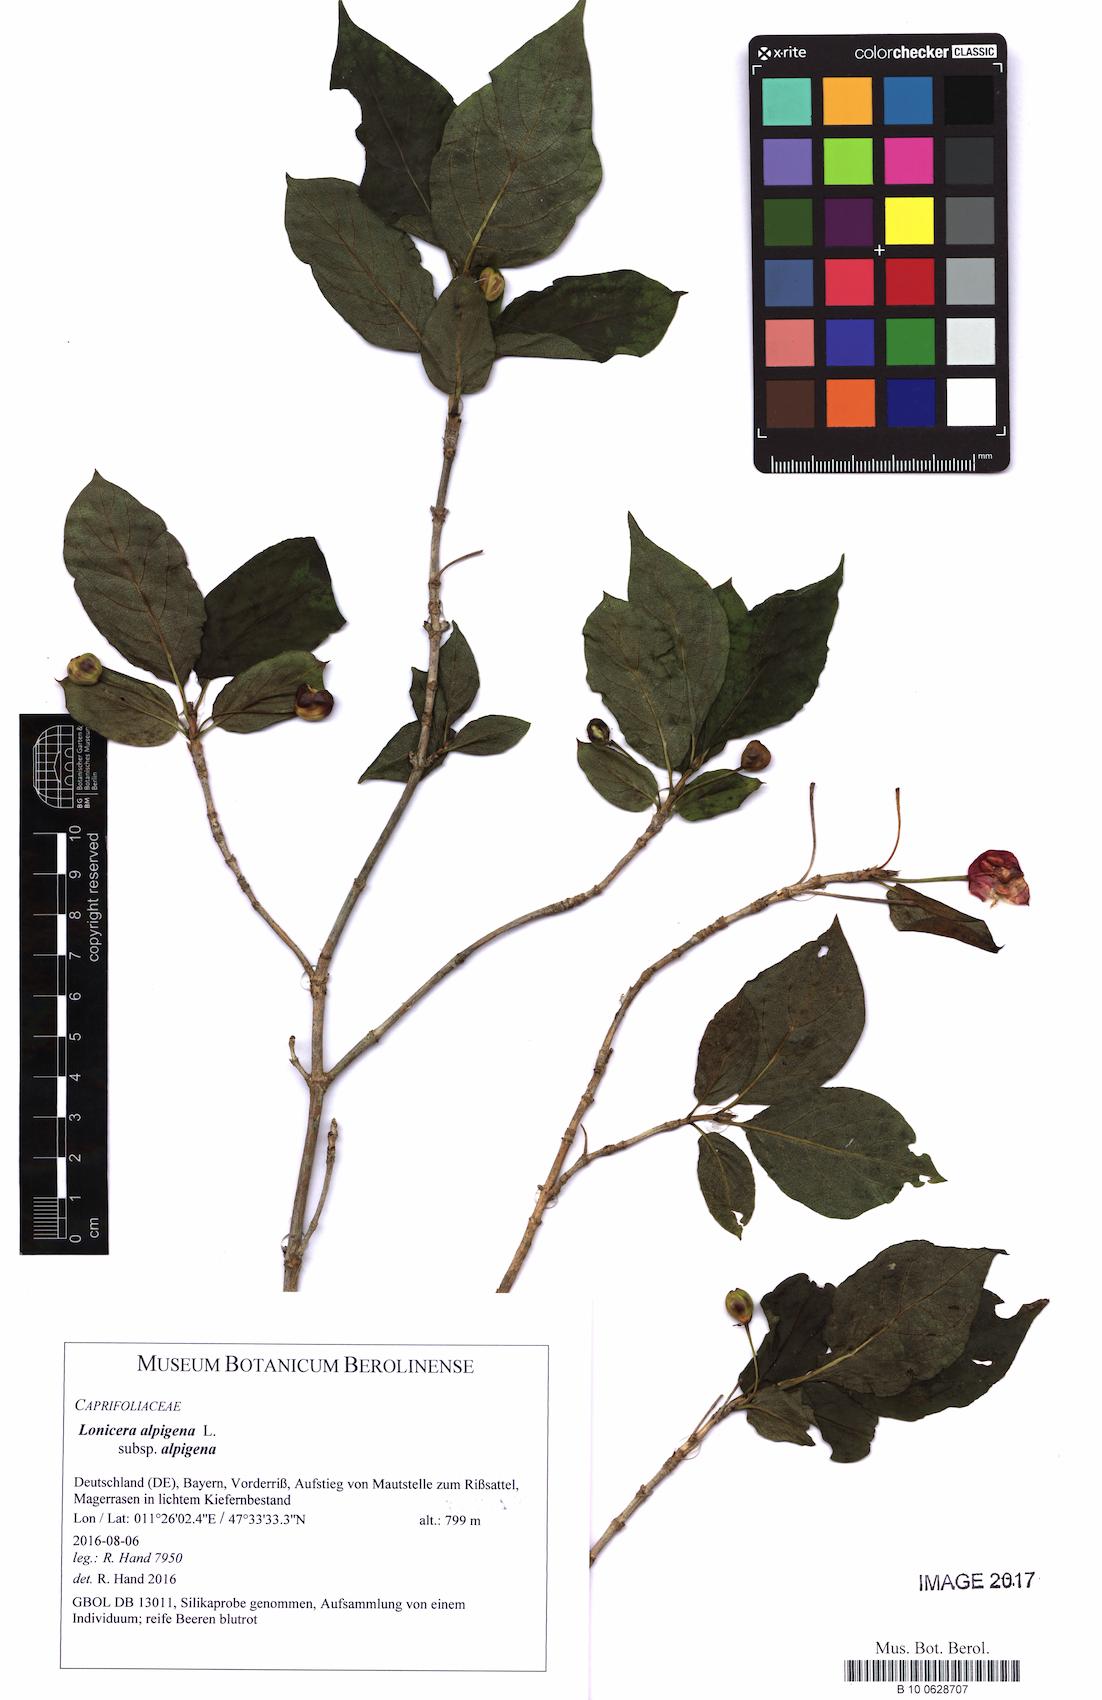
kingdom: Plantae
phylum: Tracheophyta
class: Magnoliopsida
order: Dipsacales
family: Caprifoliaceae
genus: Lonicera
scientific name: Lonicera alpigena
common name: Alpine honeysuckle
